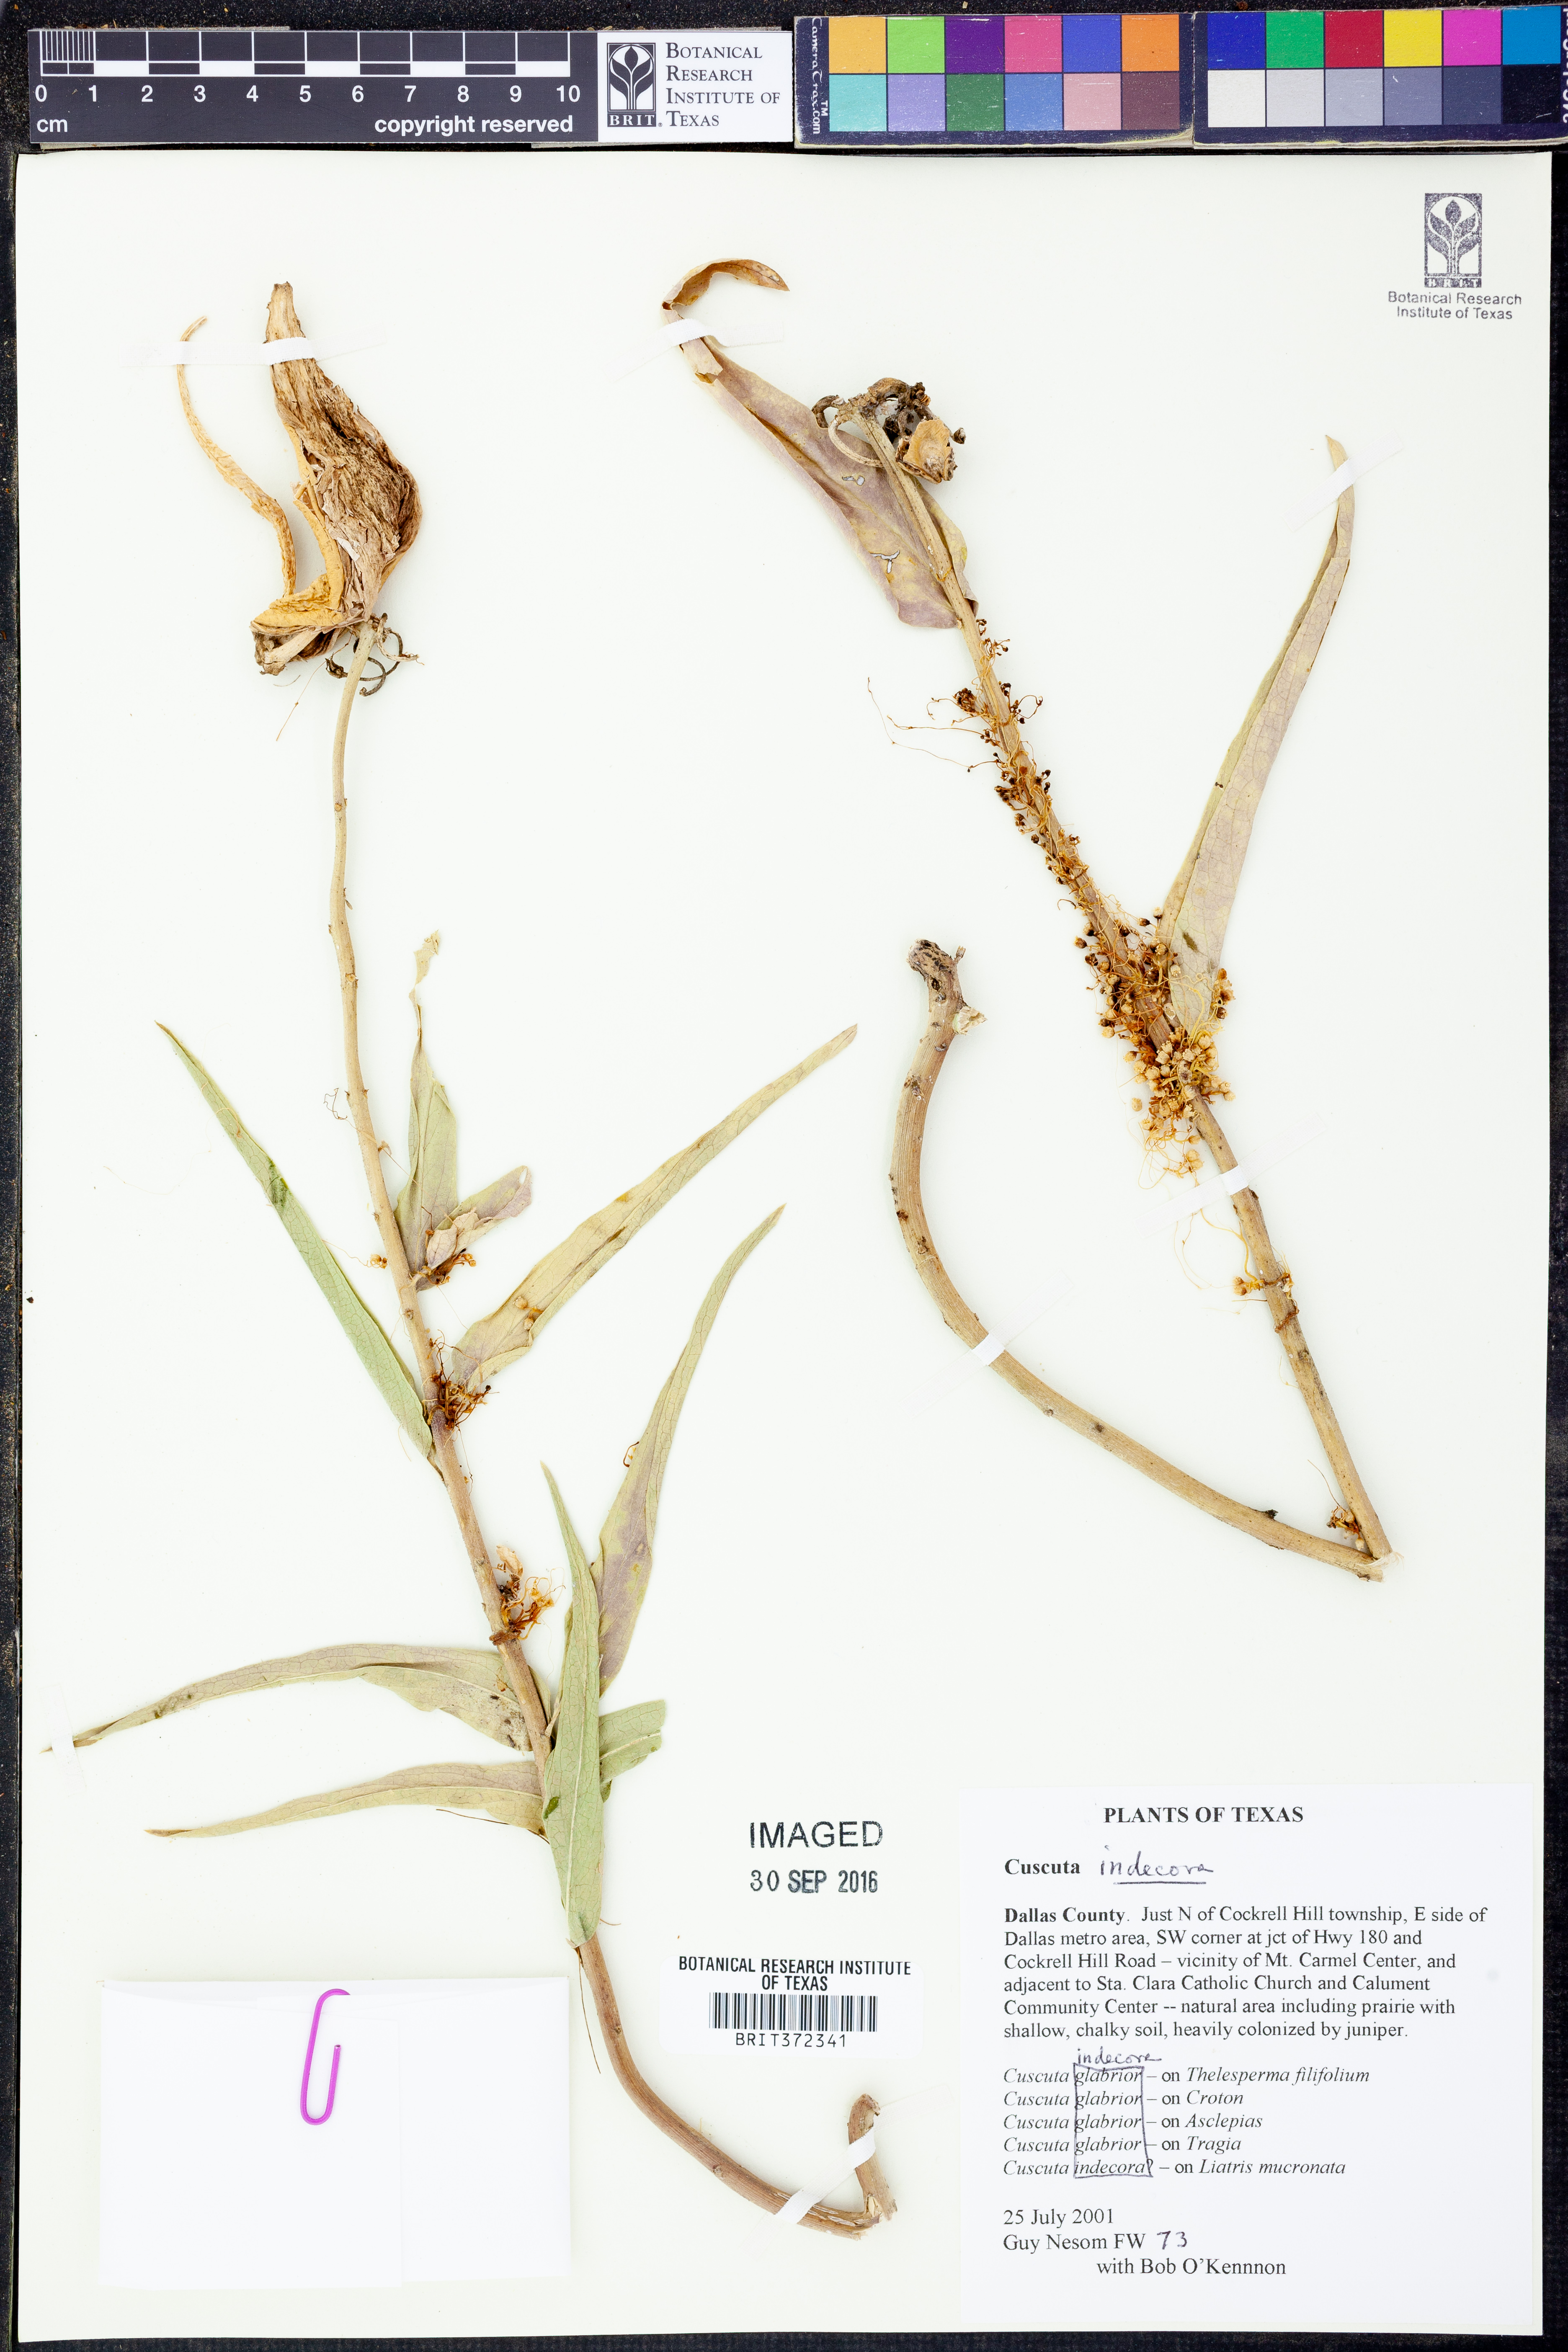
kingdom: Plantae
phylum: Tracheophyta
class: Magnoliopsida
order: Solanales
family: Convolvulaceae
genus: Cuscuta
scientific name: Cuscuta indecora
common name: Large-seed dodder
